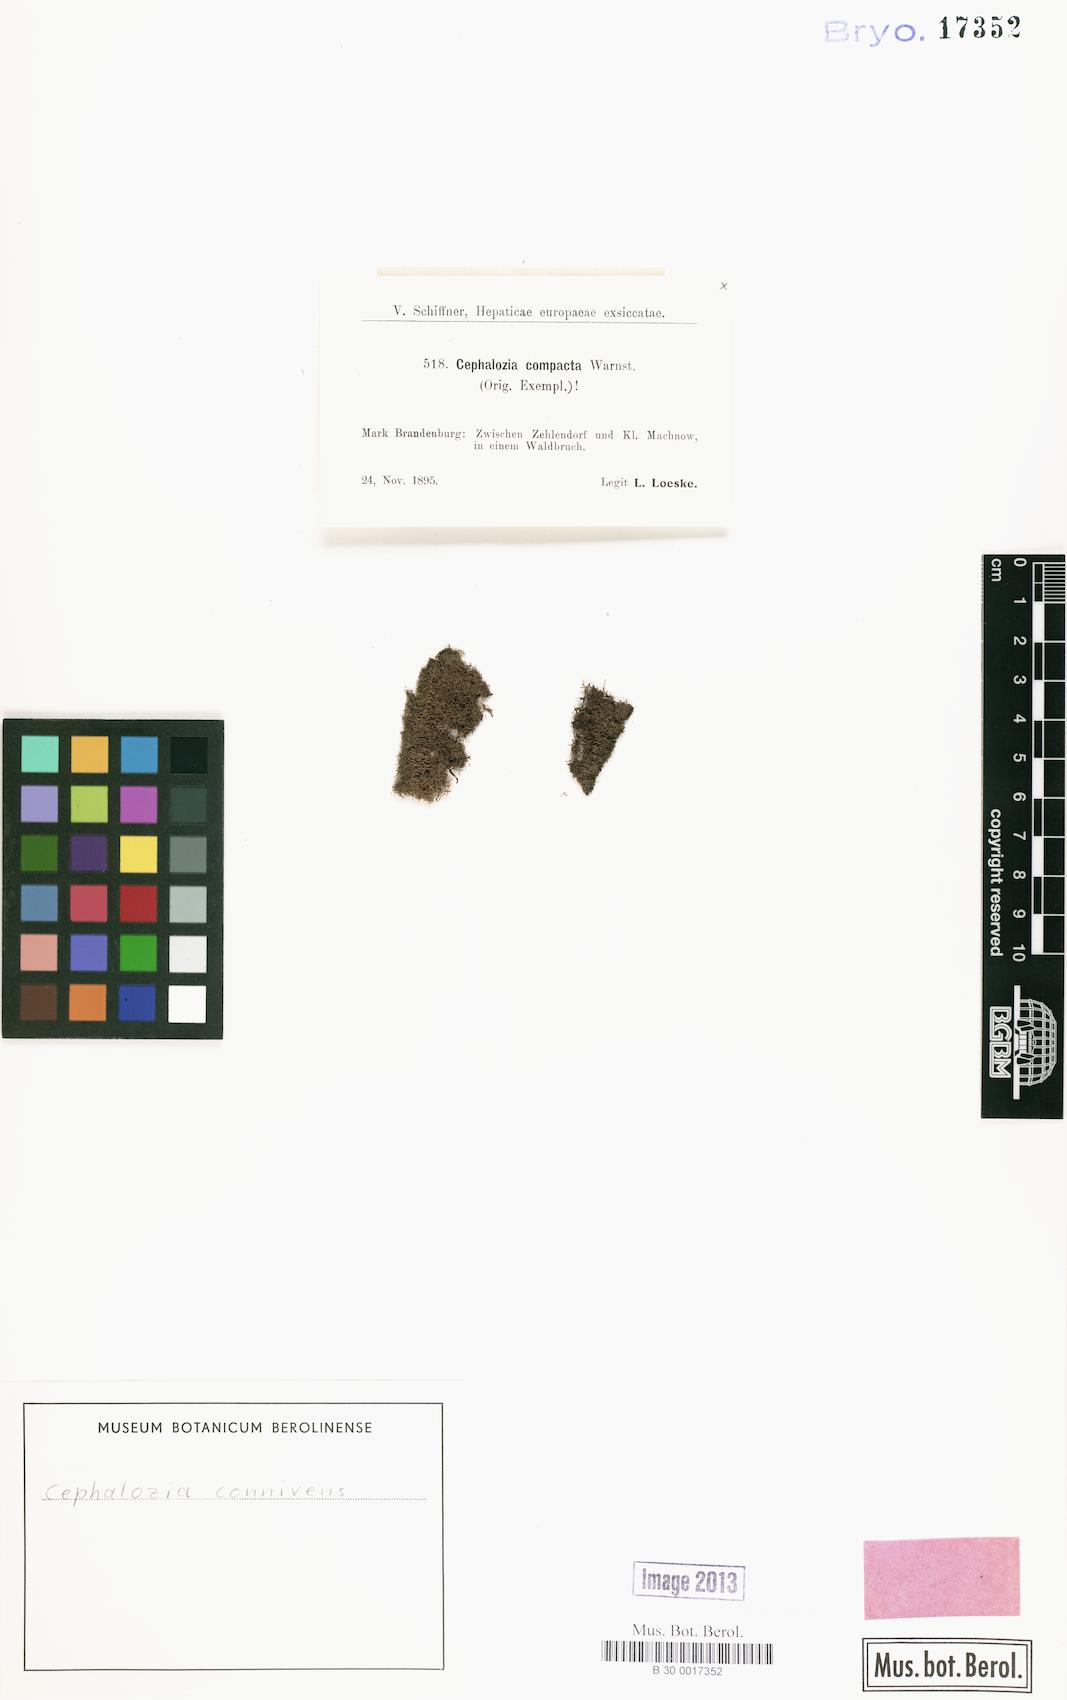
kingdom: Plantae
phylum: Marchantiophyta
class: Jungermanniopsida
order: Jungermanniales
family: Cephaloziaceae
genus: Fuscocephaloziopsis
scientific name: Fuscocephaloziopsis connivens
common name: Forcipated pincerwort
